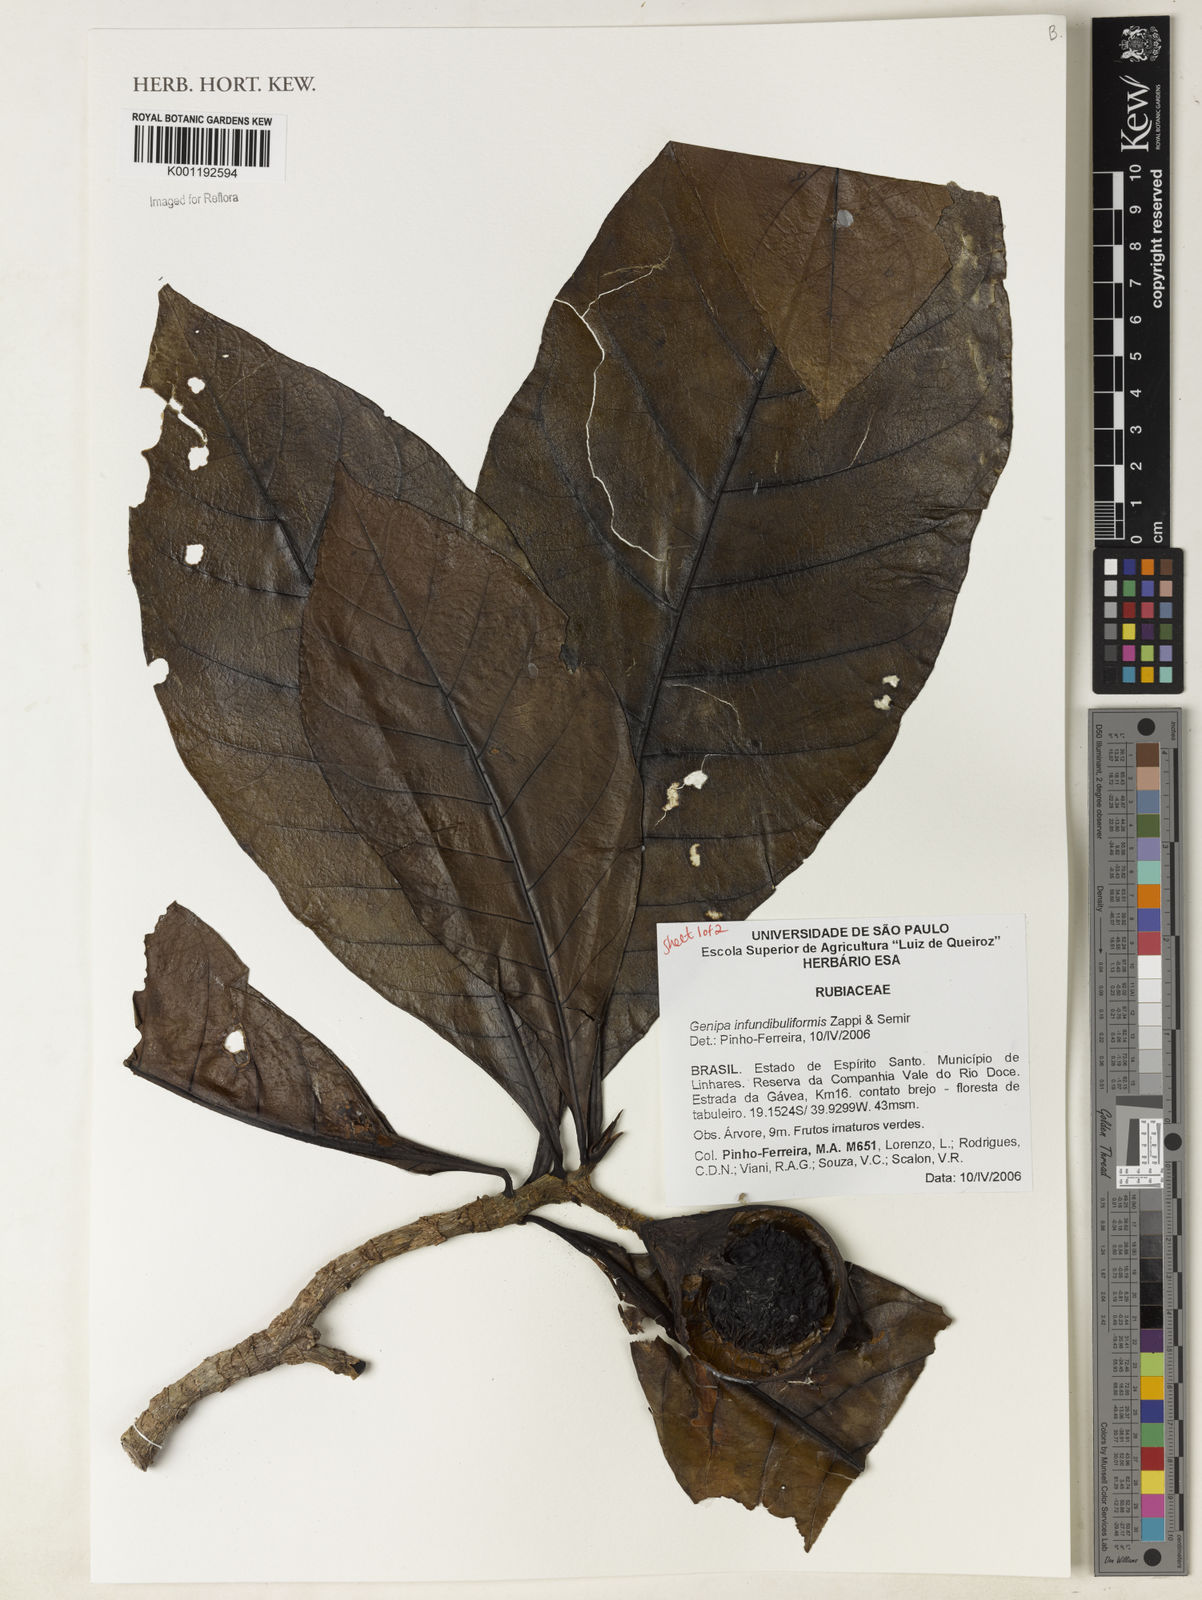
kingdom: Plantae
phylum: Tracheophyta
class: Magnoliopsida
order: Gentianales
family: Rubiaceae
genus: Genipa
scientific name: Genipa infundibuliformis
